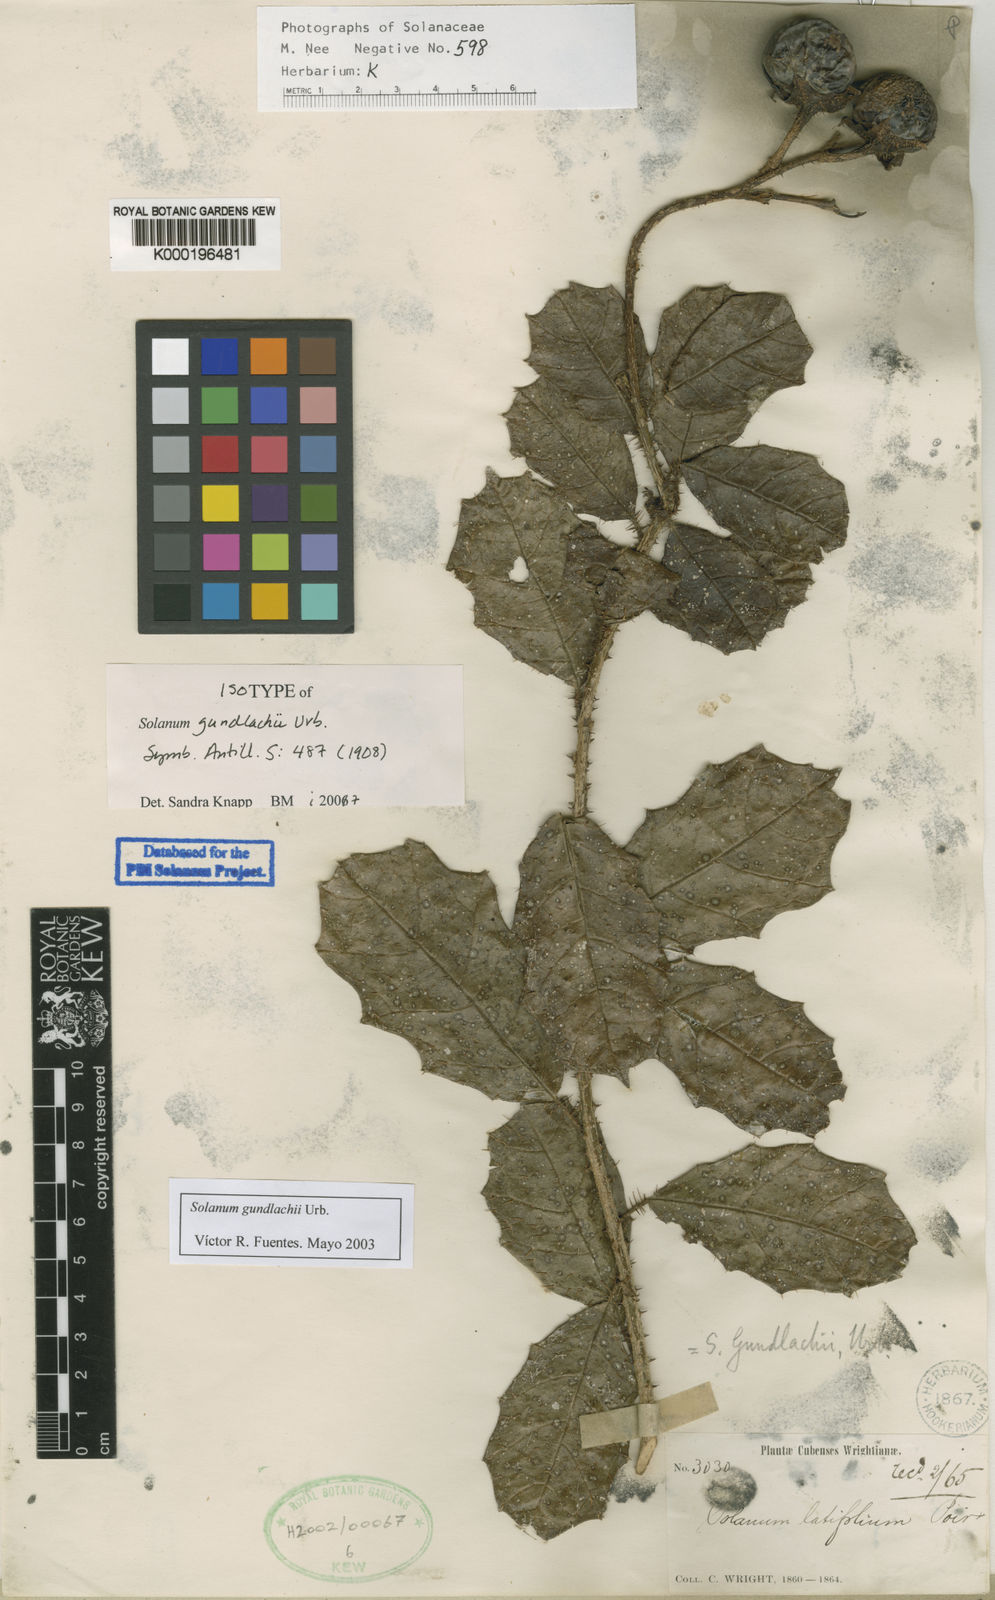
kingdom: Plantae
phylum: Tracheophyta
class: Magnoliopsida
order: Solanales
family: Solanaceae
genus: Solanum
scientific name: Solanum gundlachii
